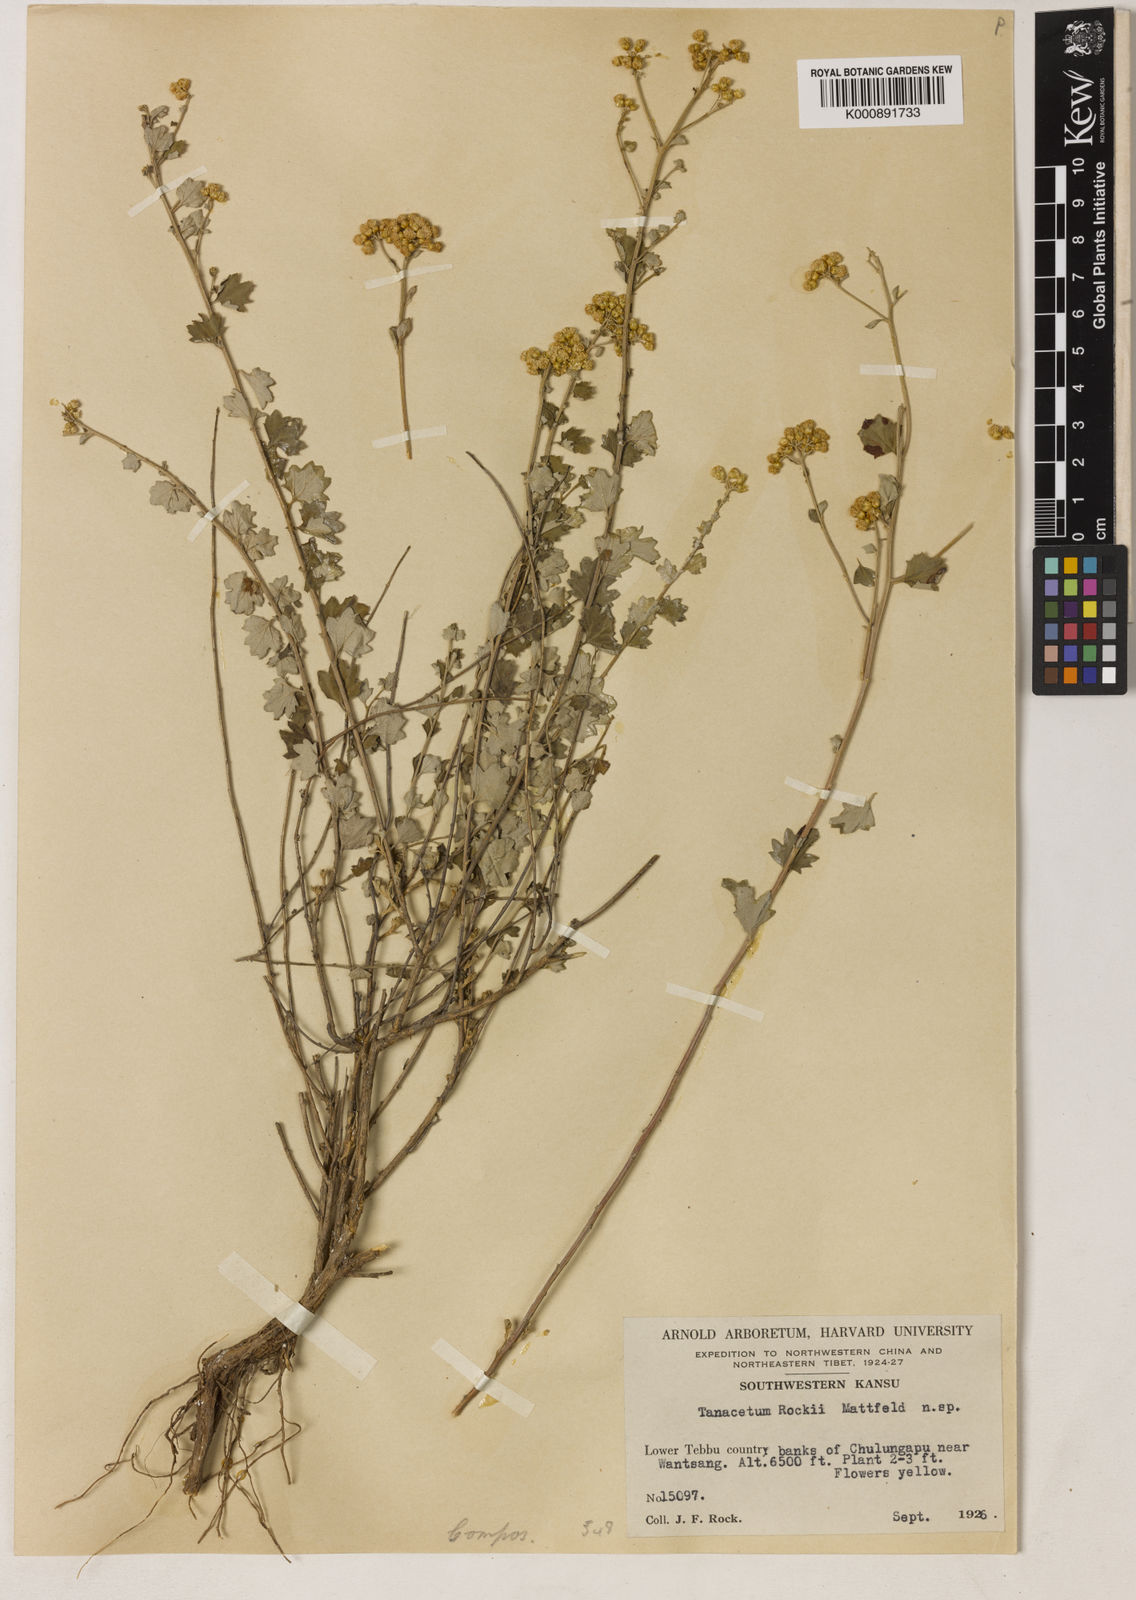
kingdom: Plantae
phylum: Tracheophyta
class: Magnoliopsida
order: Asterales
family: Asteraceae
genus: Ajania
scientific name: Ajania potaninii
